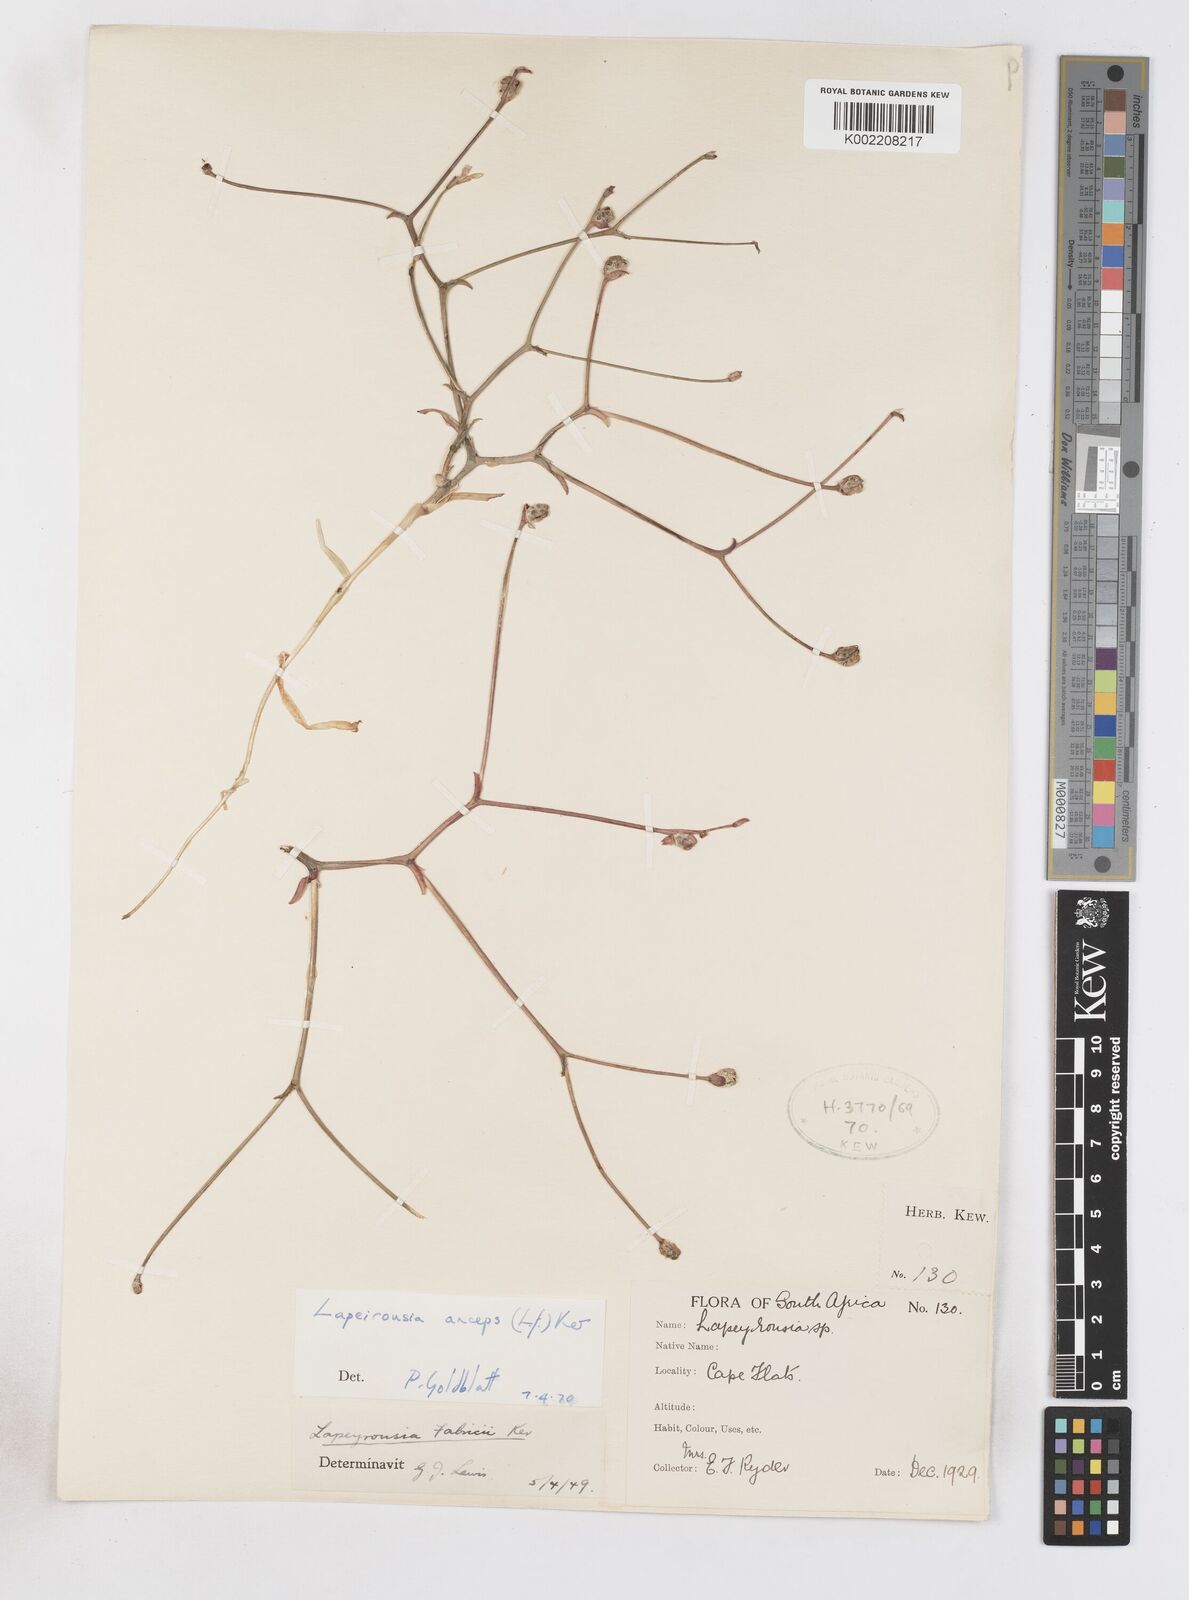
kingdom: Plantae
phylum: Tracheophyta
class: Liliopsida
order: Asparagales
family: Iridaceae
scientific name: Iridaceae
